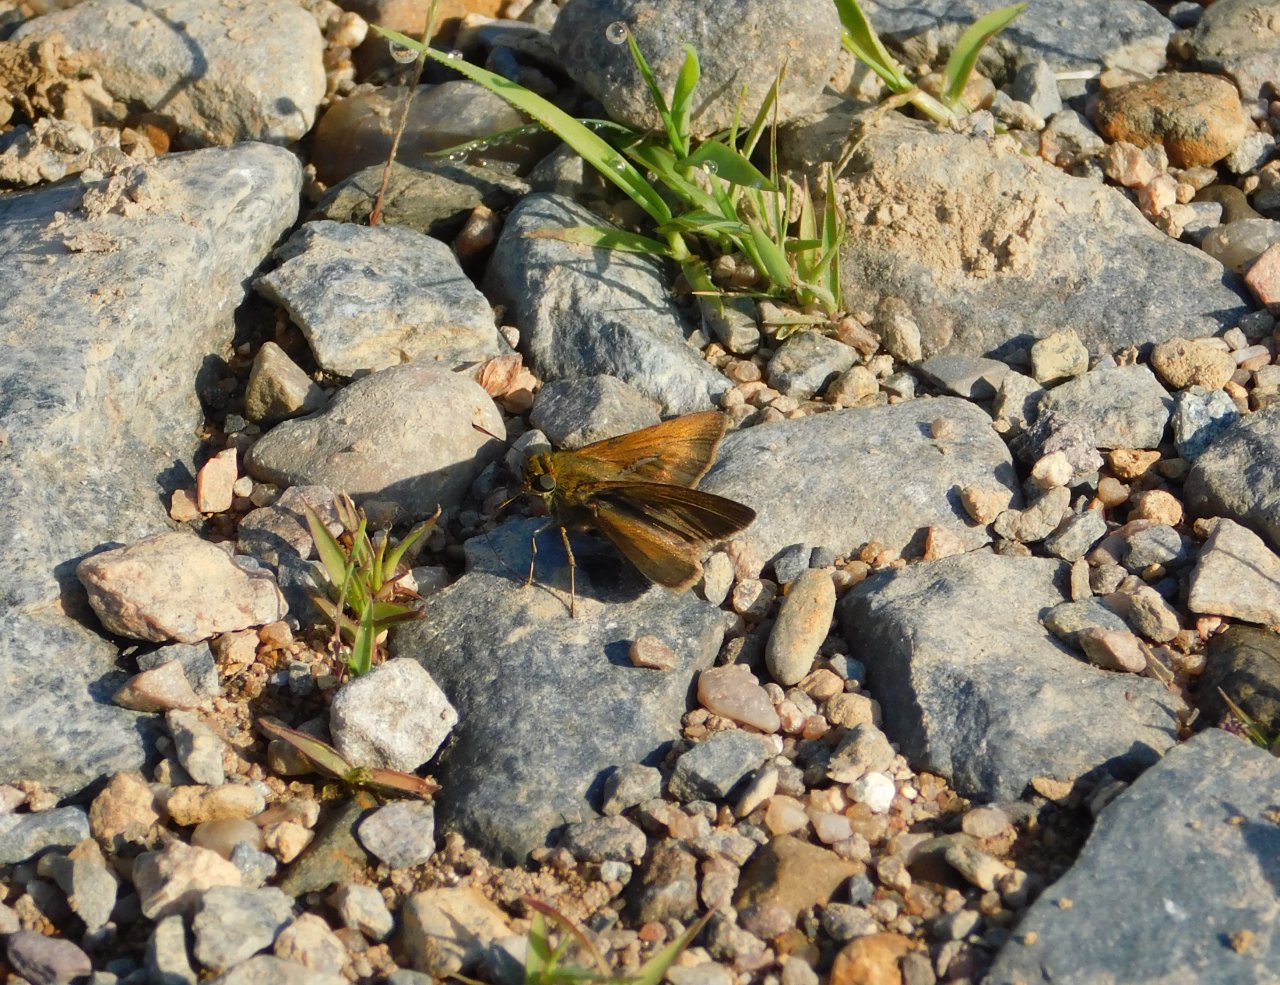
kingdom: Animalia
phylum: Arthropoda
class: Insecta
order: Lepidoptera
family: Hesperiidae
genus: Polites
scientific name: Polites themistocles
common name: Tawny-edged Skipper
